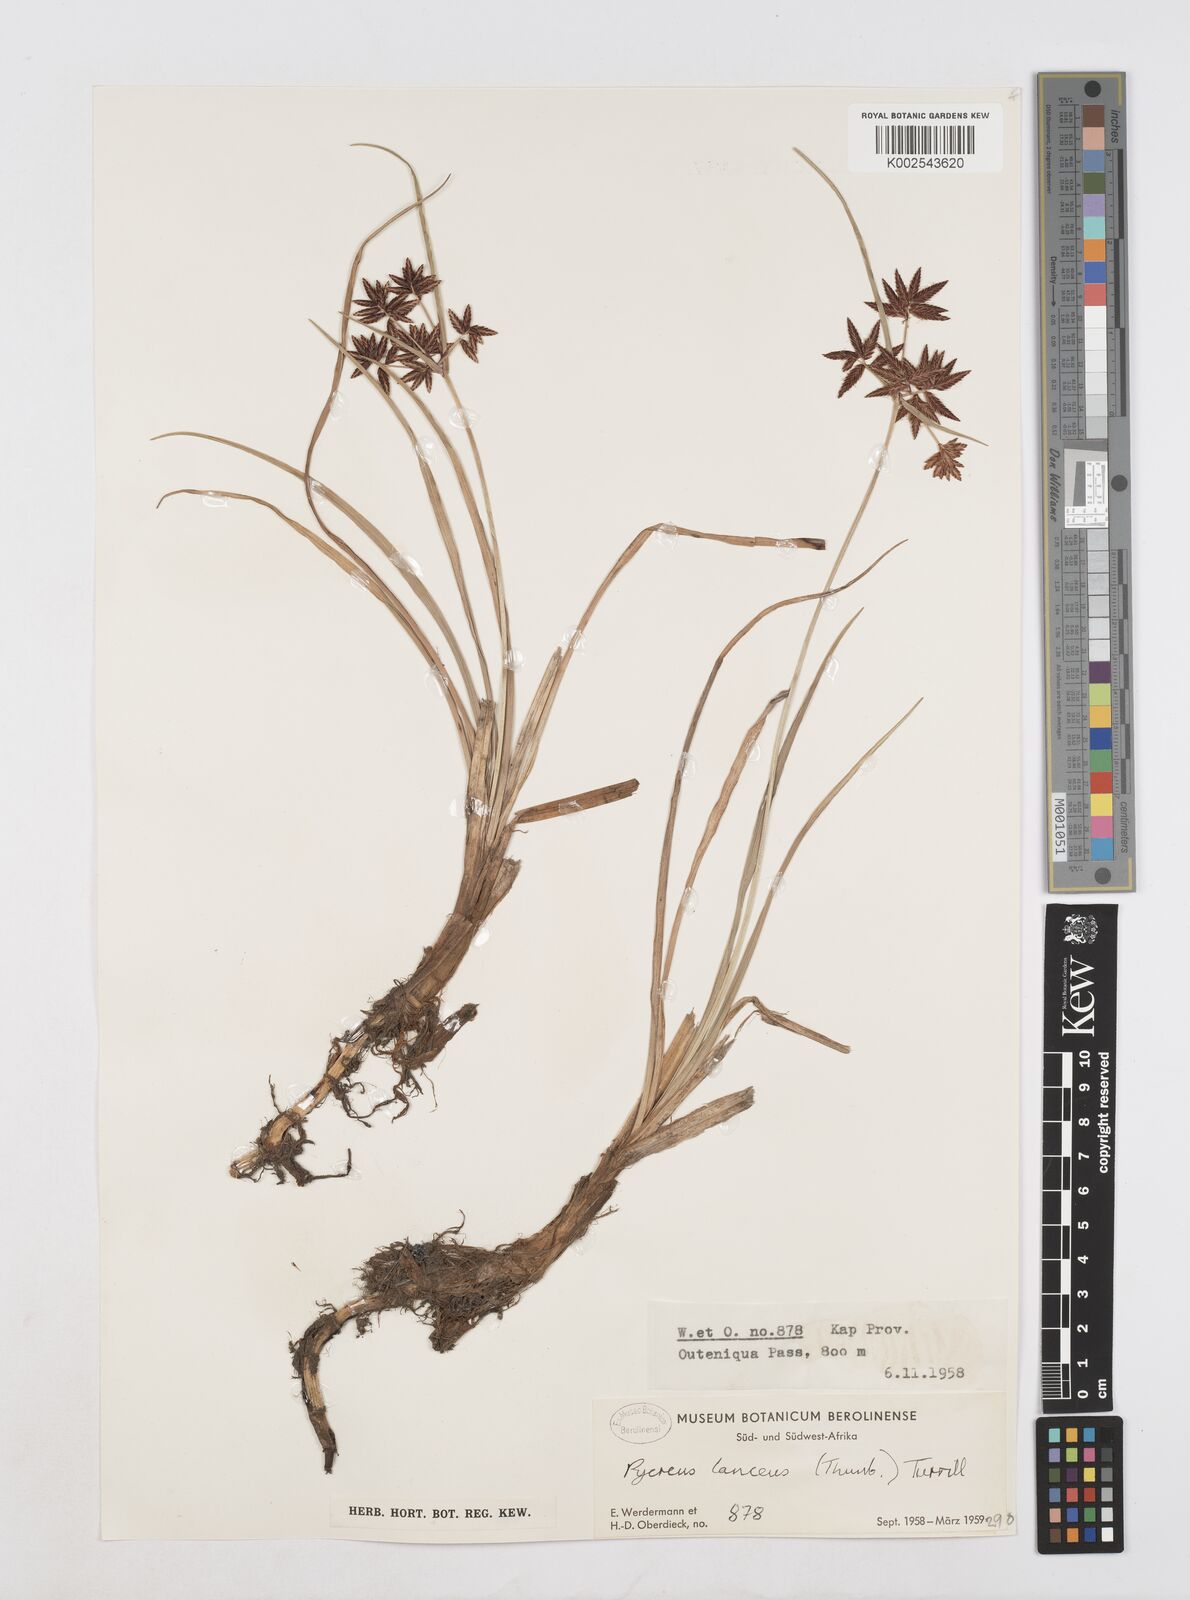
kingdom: Plantae
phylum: Tracheophyta
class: Liliopsida
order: Poales
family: Cyperaceae
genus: Cyperus
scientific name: Cyperus nitidus
